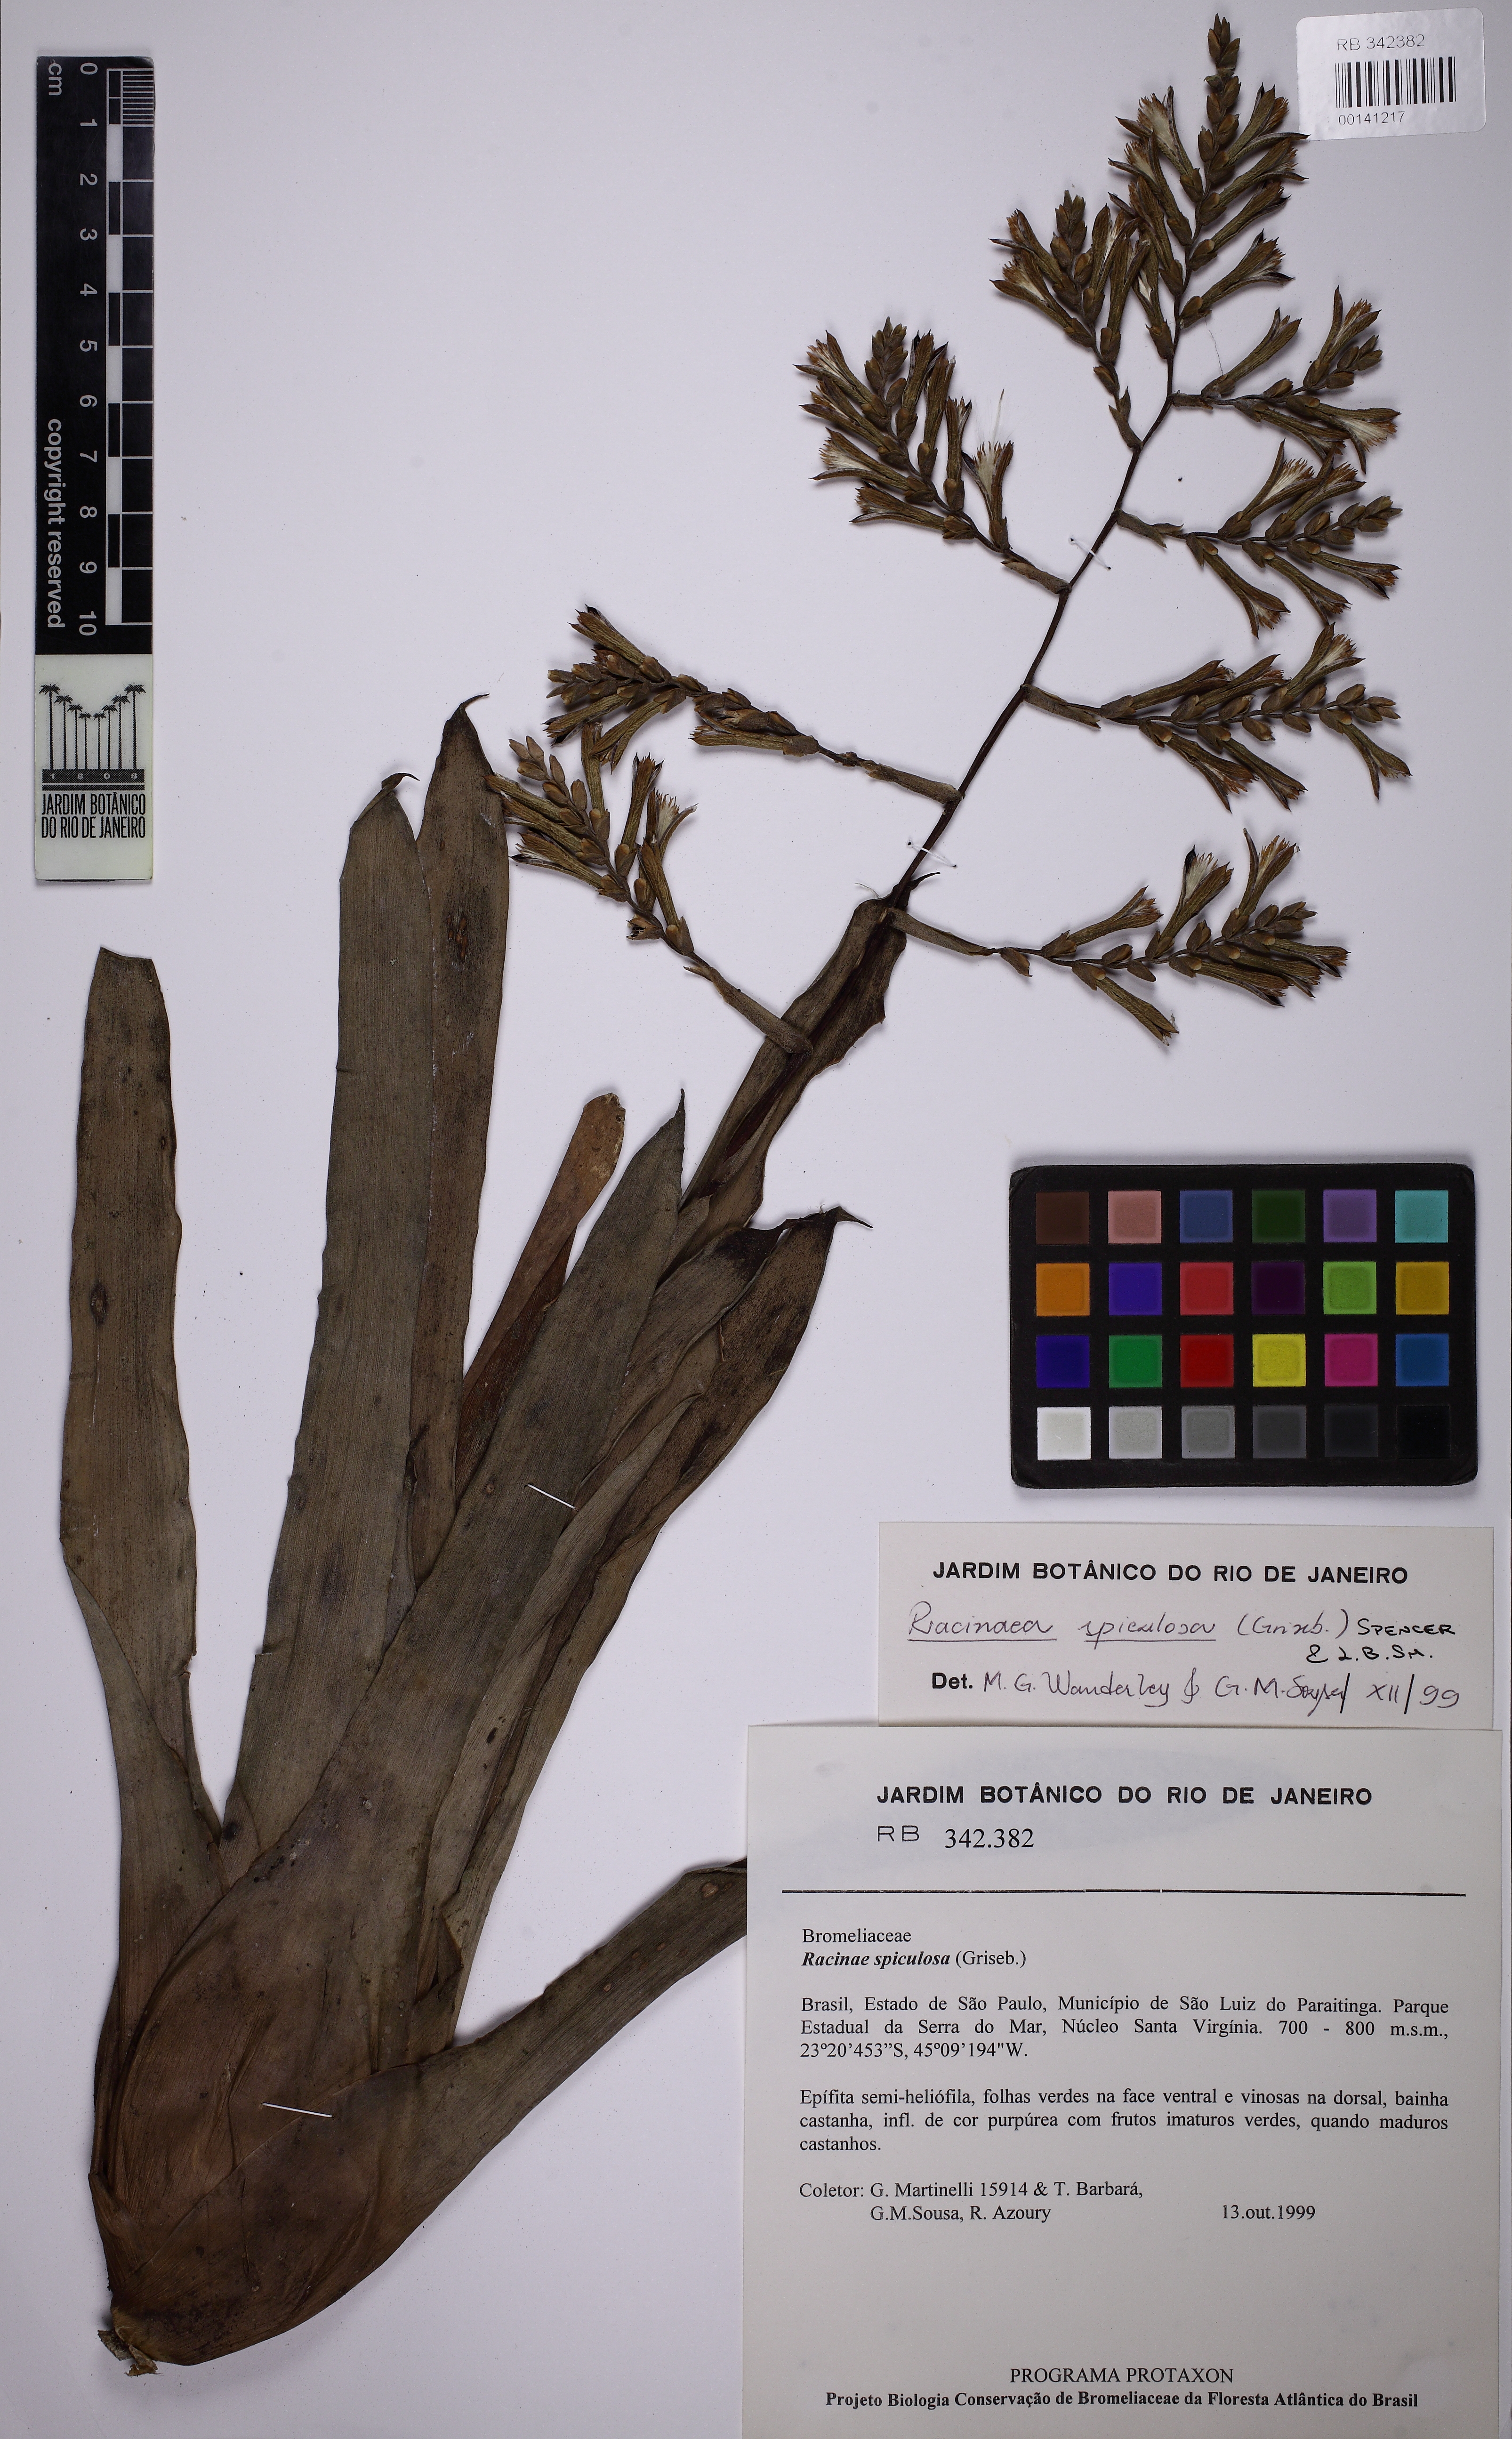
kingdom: Plantae
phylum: Tracheophyta
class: Liliopsida
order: Poales
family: Bromeliaceae
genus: Racinaea
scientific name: Racinaea spiculosa
